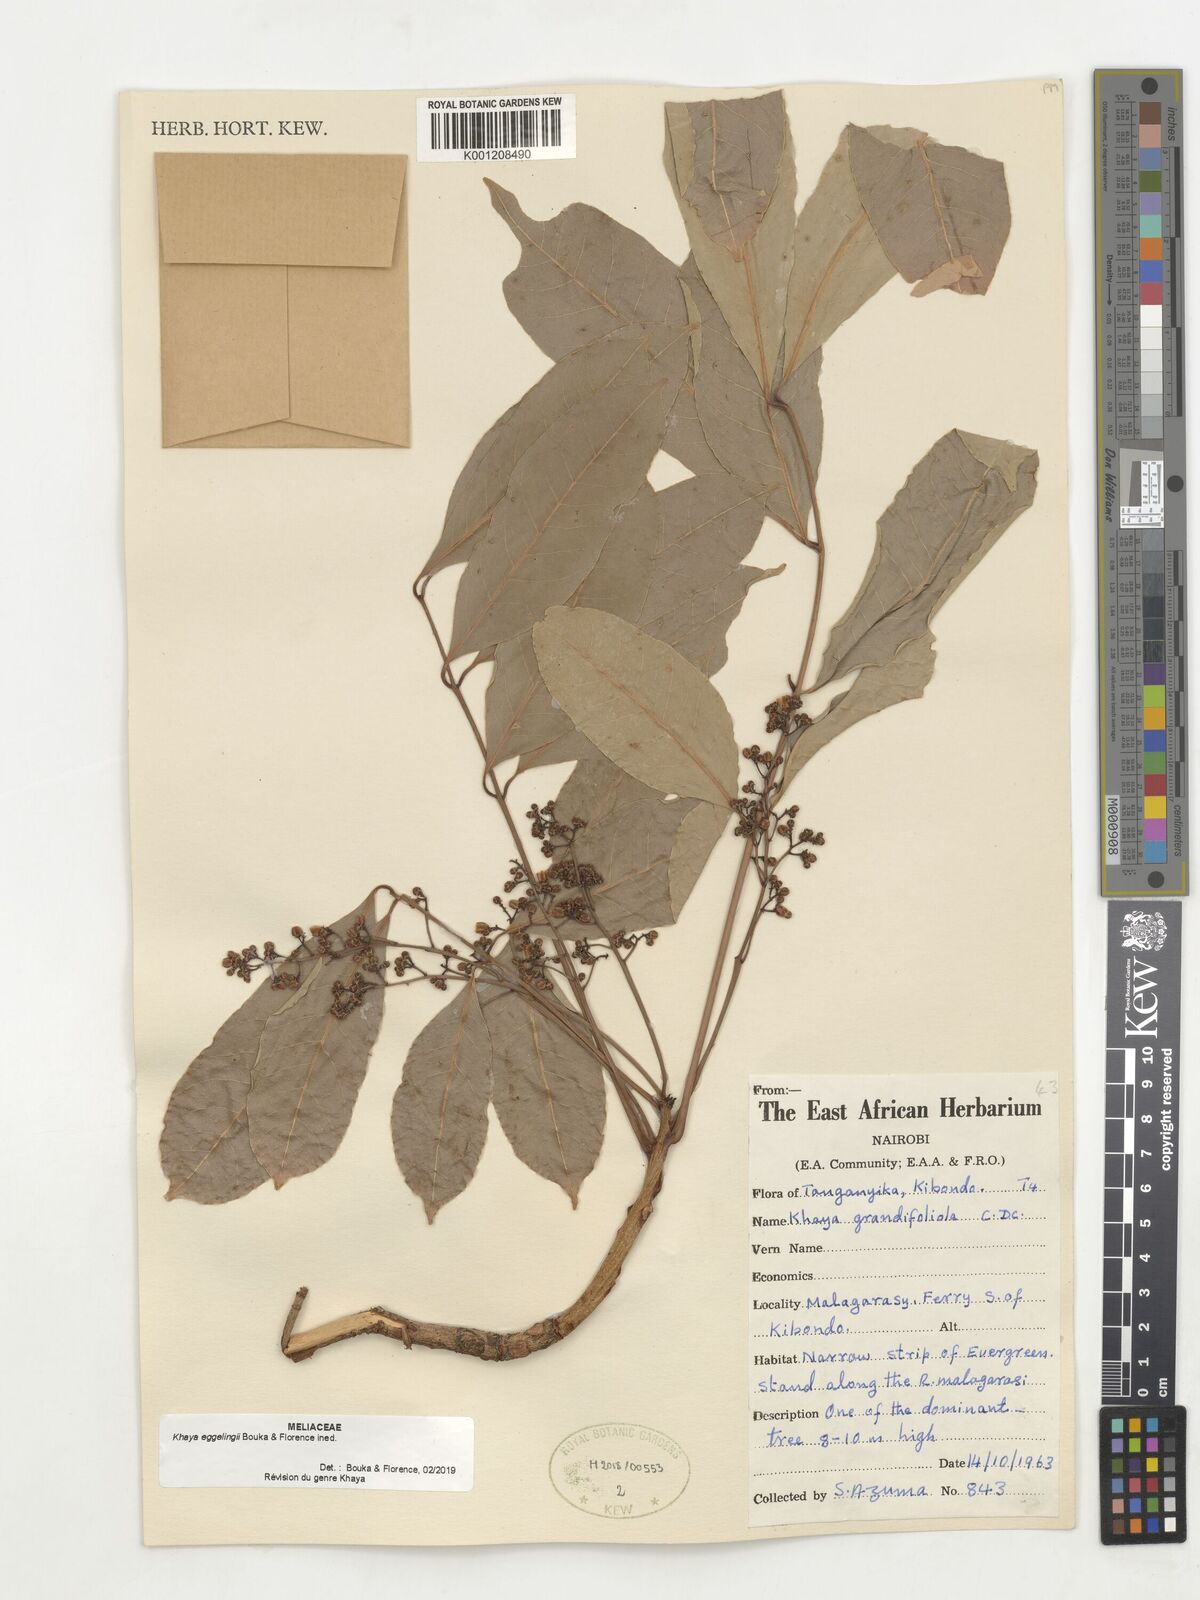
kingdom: Plantae
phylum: Tracheophyta
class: Magnoliopsida
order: Sapindales
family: Meliaceae
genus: Khaya
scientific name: Khaya
